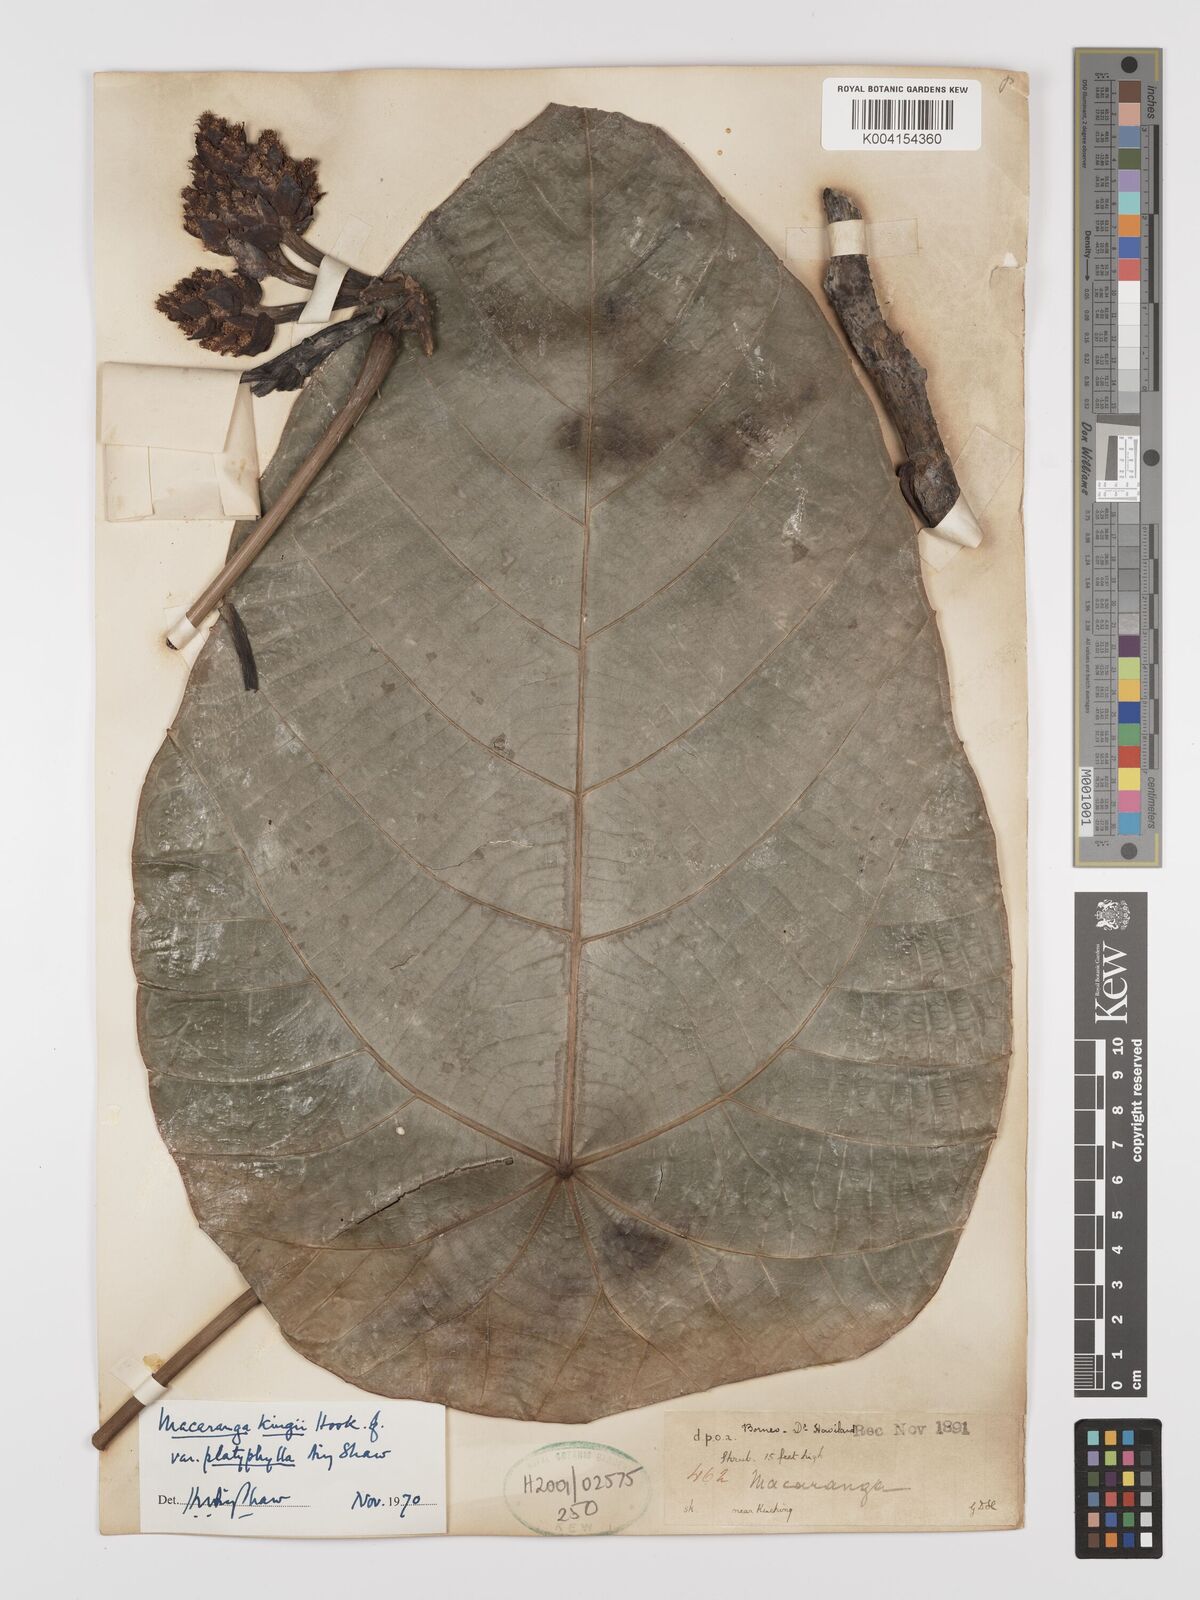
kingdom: Plantae
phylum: Tracheophyta
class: Magnoliopsida
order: Malpighiales
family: Euphorbiaceae
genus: Macaranga
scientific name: Macaranga umbrosa
